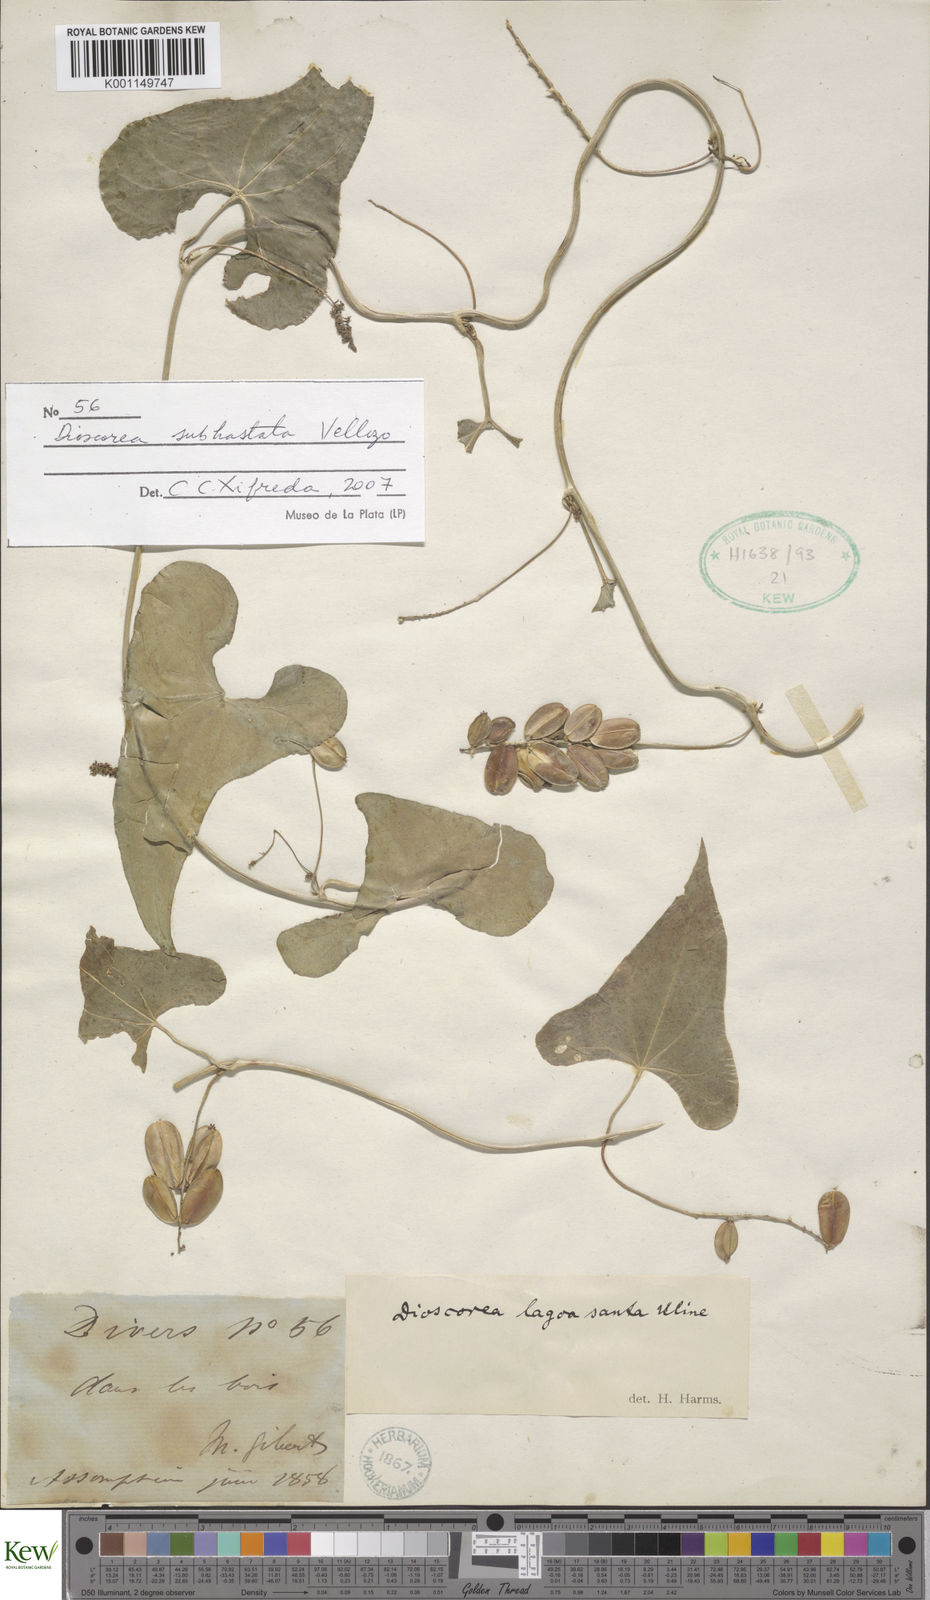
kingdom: Plantae
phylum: Tracheophyta
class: Liliopsida
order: Dioscoreales
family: Dioscoreaceae
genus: Dioscorea
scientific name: Dioscorea monadelpha
